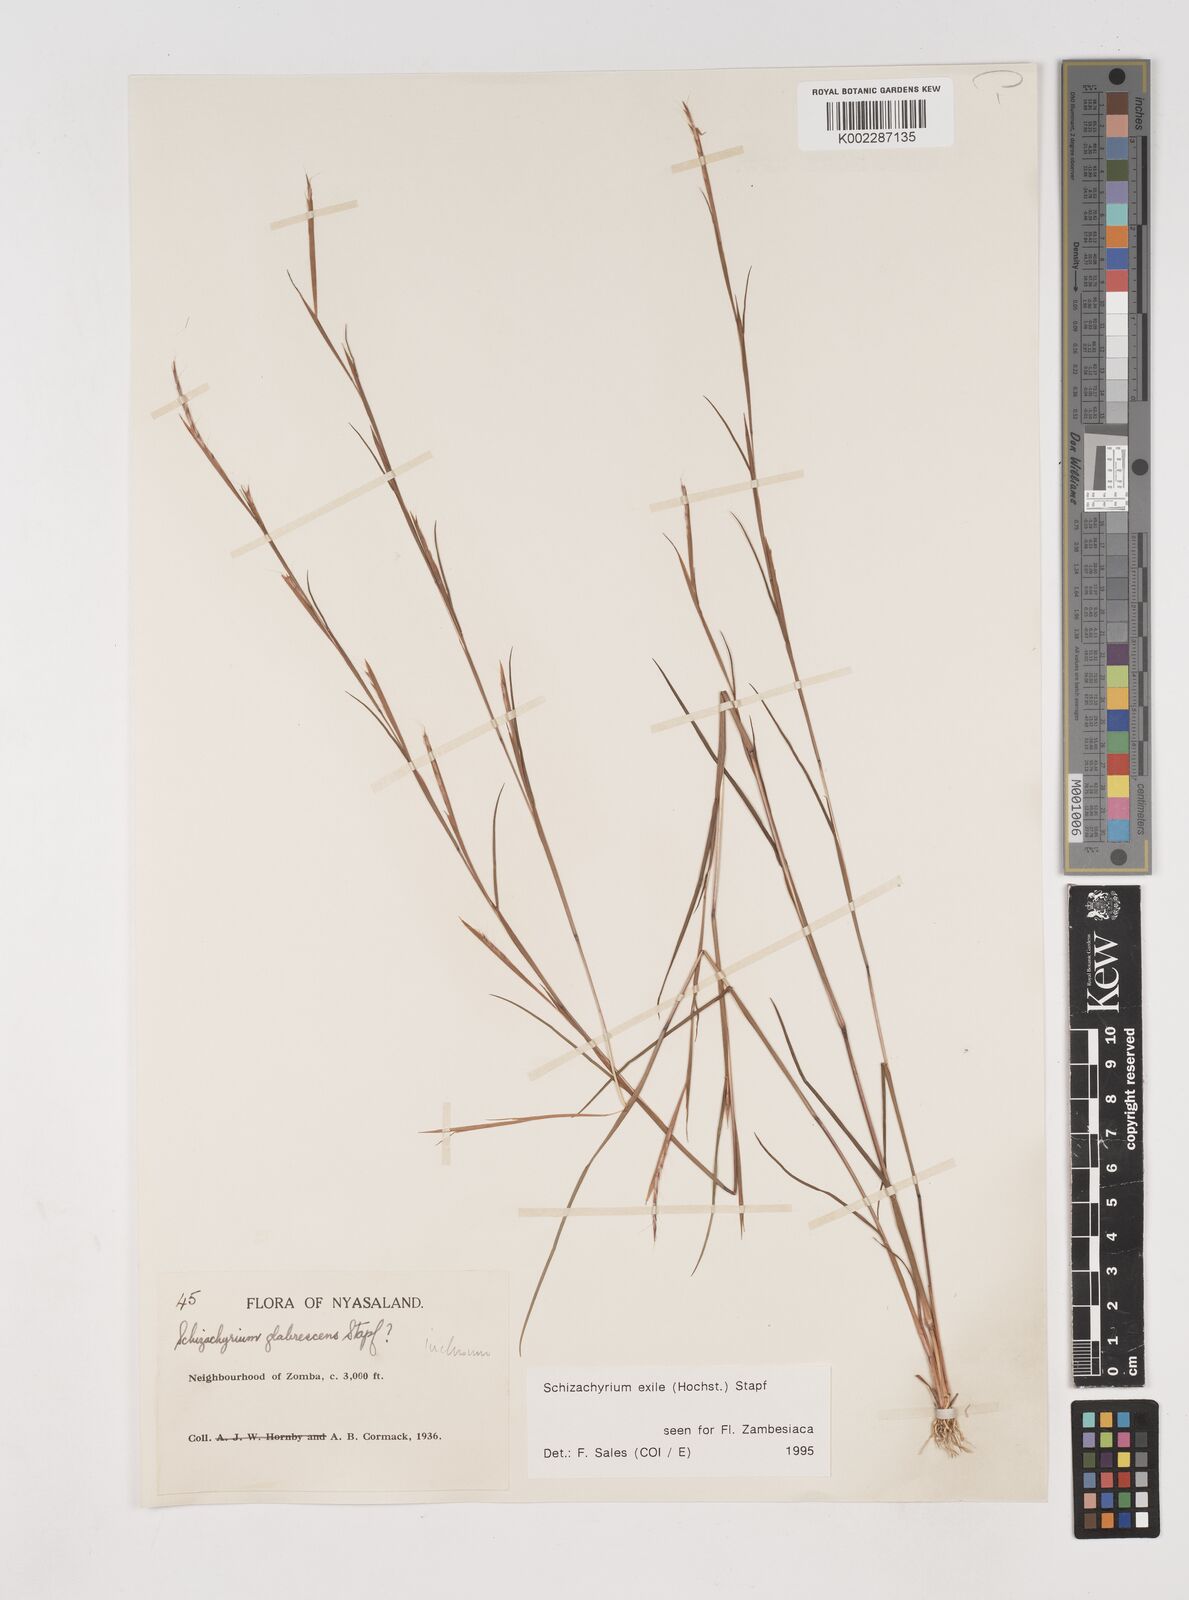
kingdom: Plantae
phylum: Tracheophyta
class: Liliopsida
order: Poales
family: Poaceae
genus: Schizachyrium
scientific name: Schizachyrium exile
